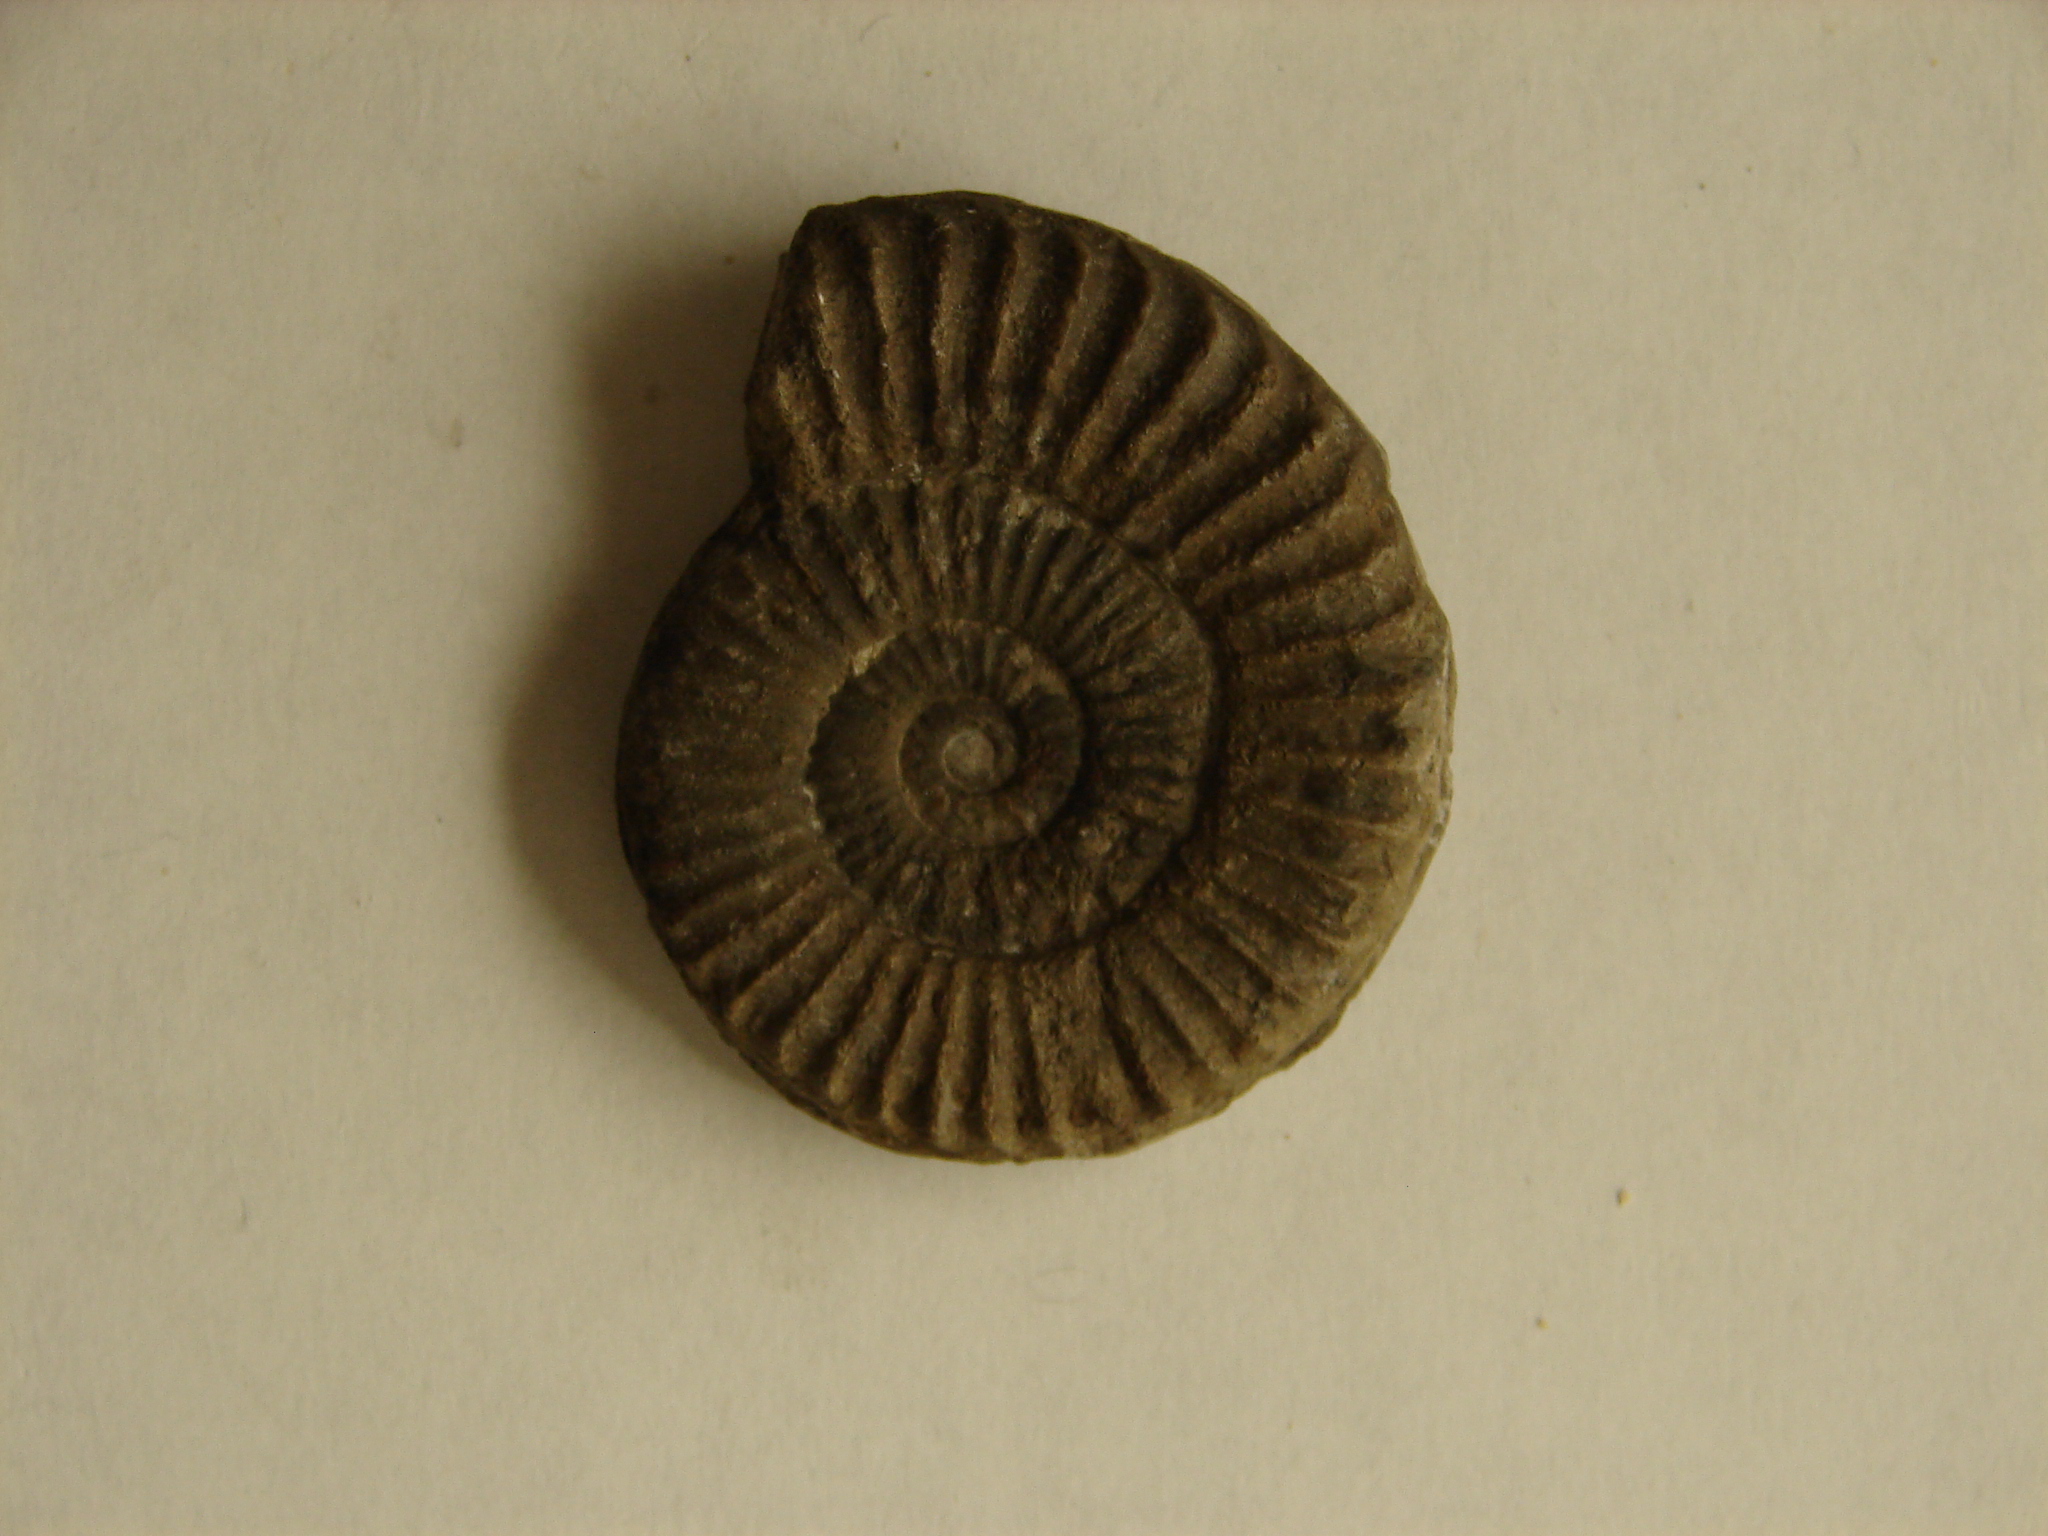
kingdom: Animalia
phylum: Mollusca
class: Cephalopoda
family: Arietitidae
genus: Arnioceras
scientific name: Arnioceras ceratitoides
